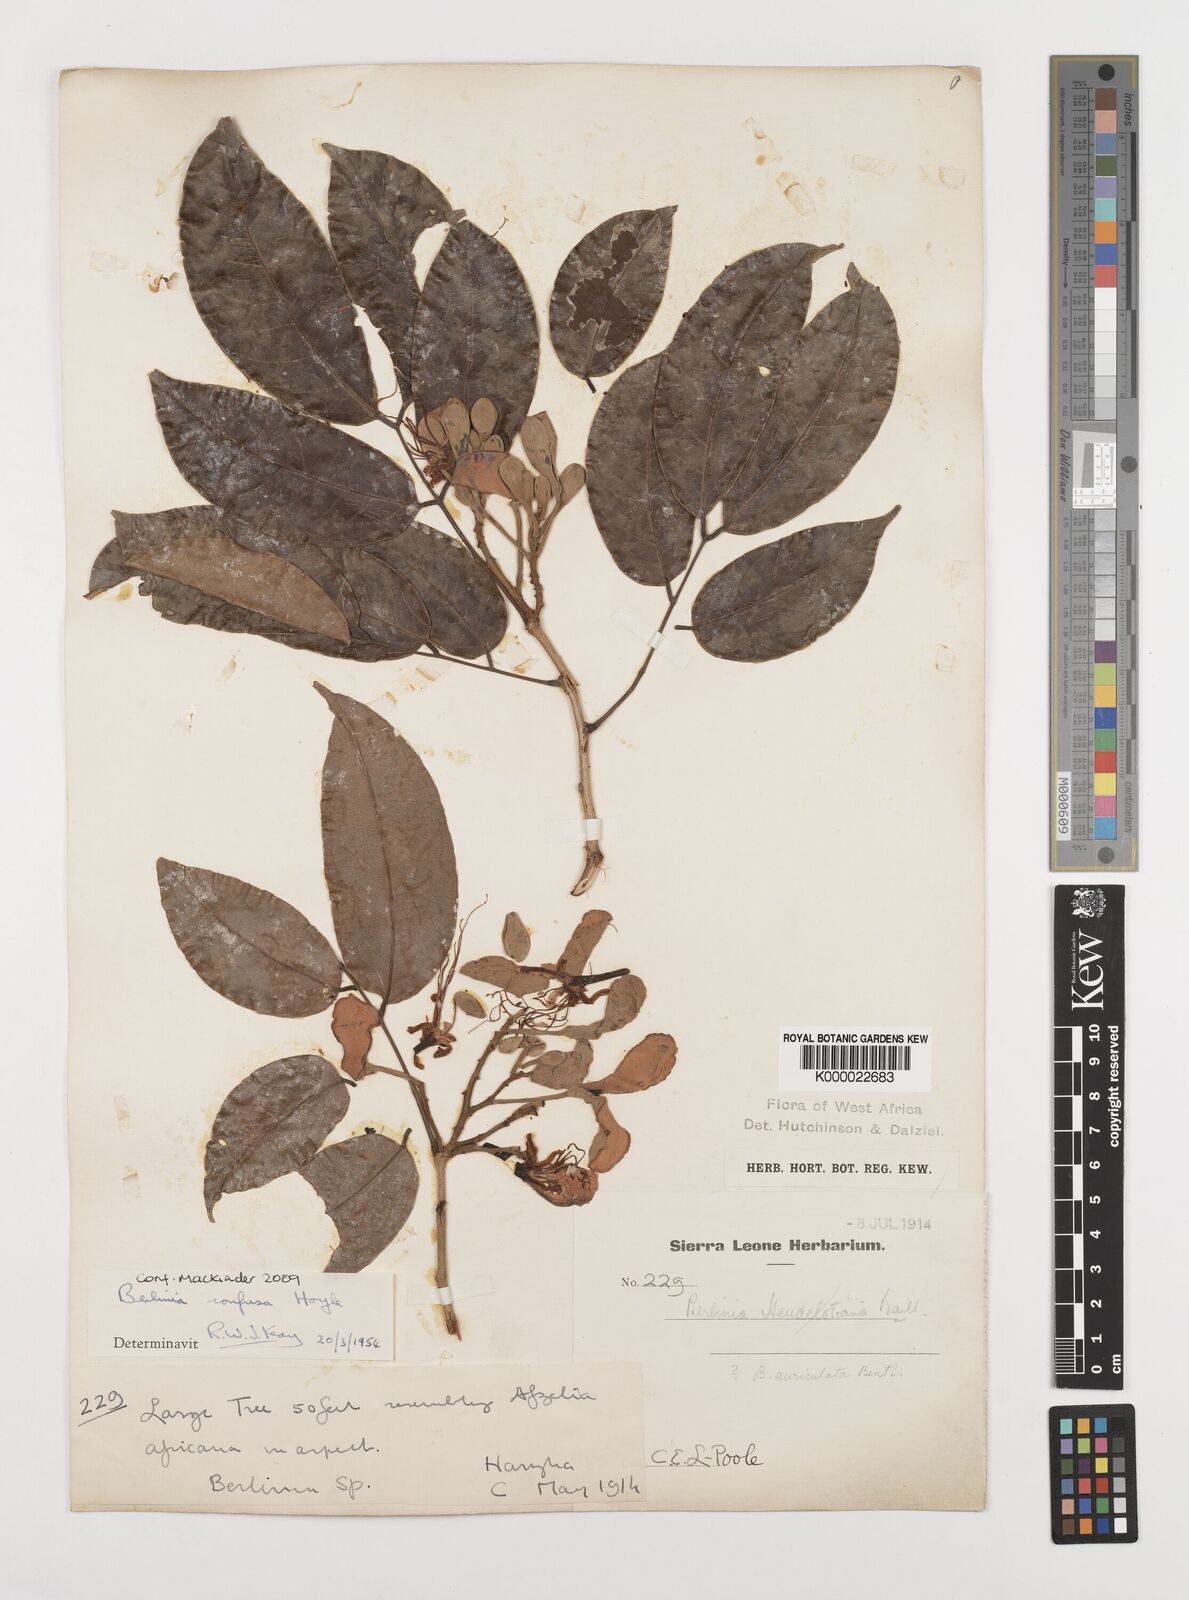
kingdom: Plantae
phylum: Tracheophyta
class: Magnoliopsida
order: Fabales
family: Fabaceae
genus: Berlinia
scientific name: Berlinia
